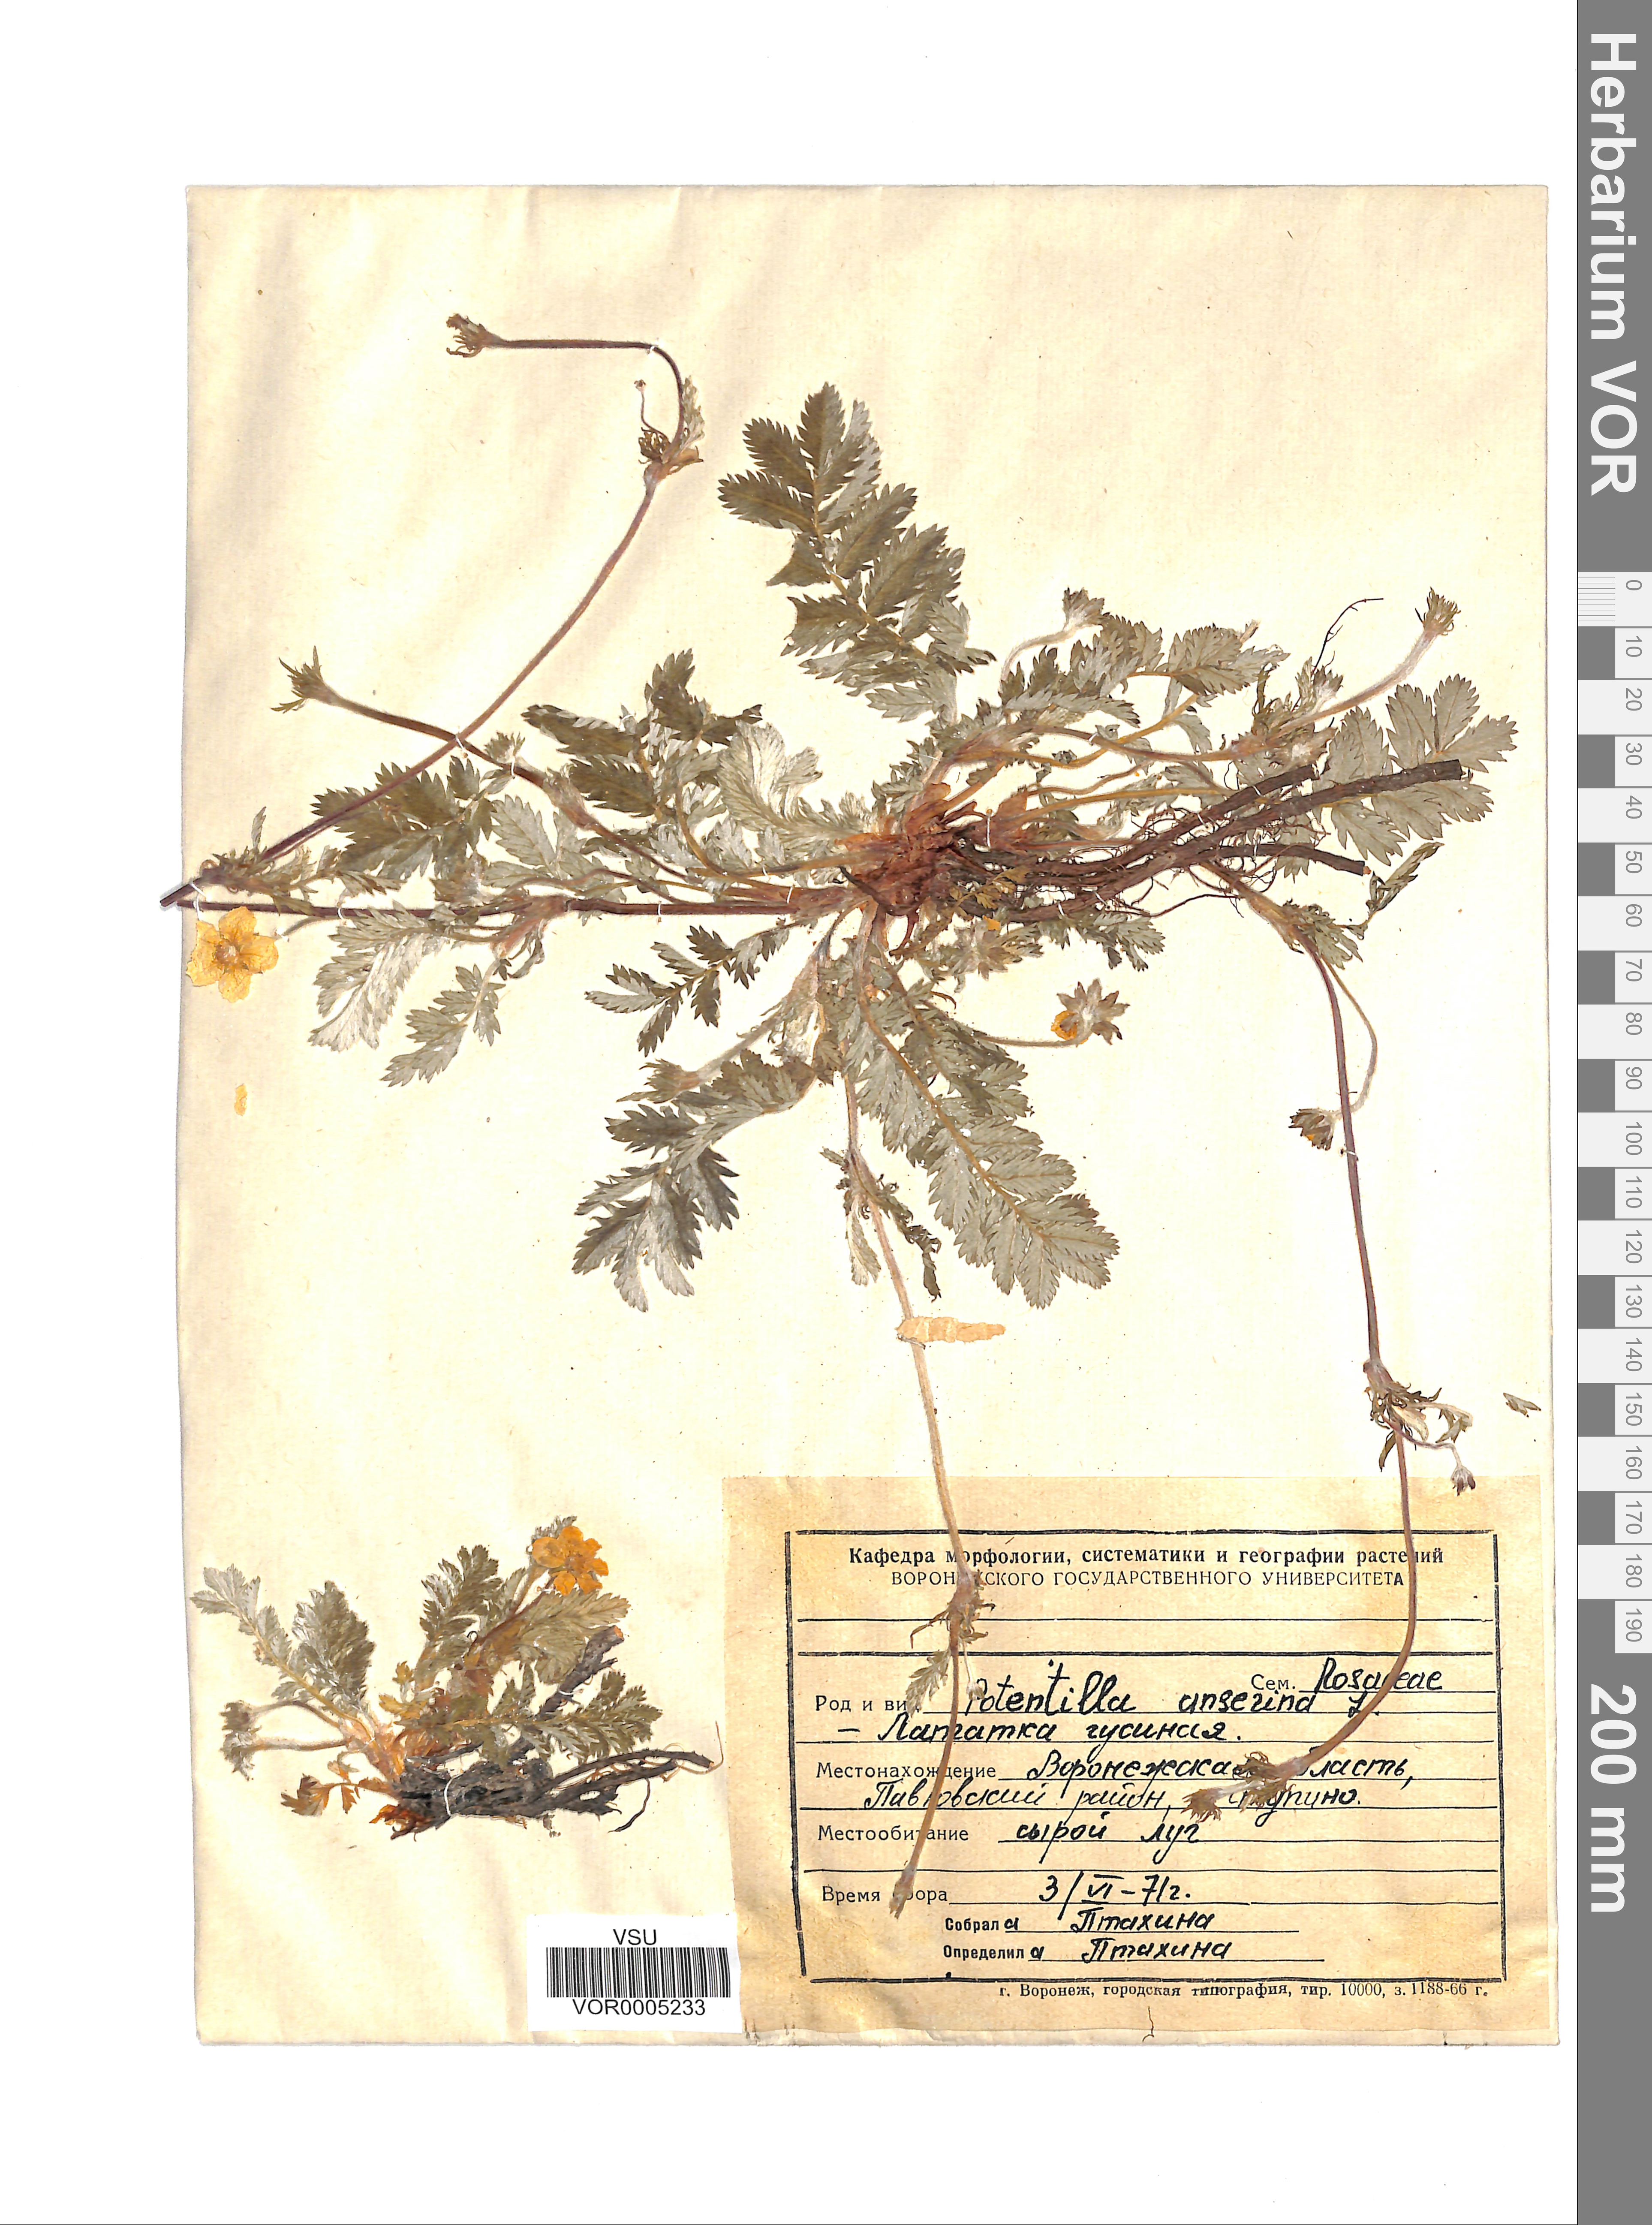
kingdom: Plantae
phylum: Tracheophyta
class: Magnoliopsida
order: Rosales
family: Rosaceae
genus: Argentina
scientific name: Argentina anserina
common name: Common silverweed
